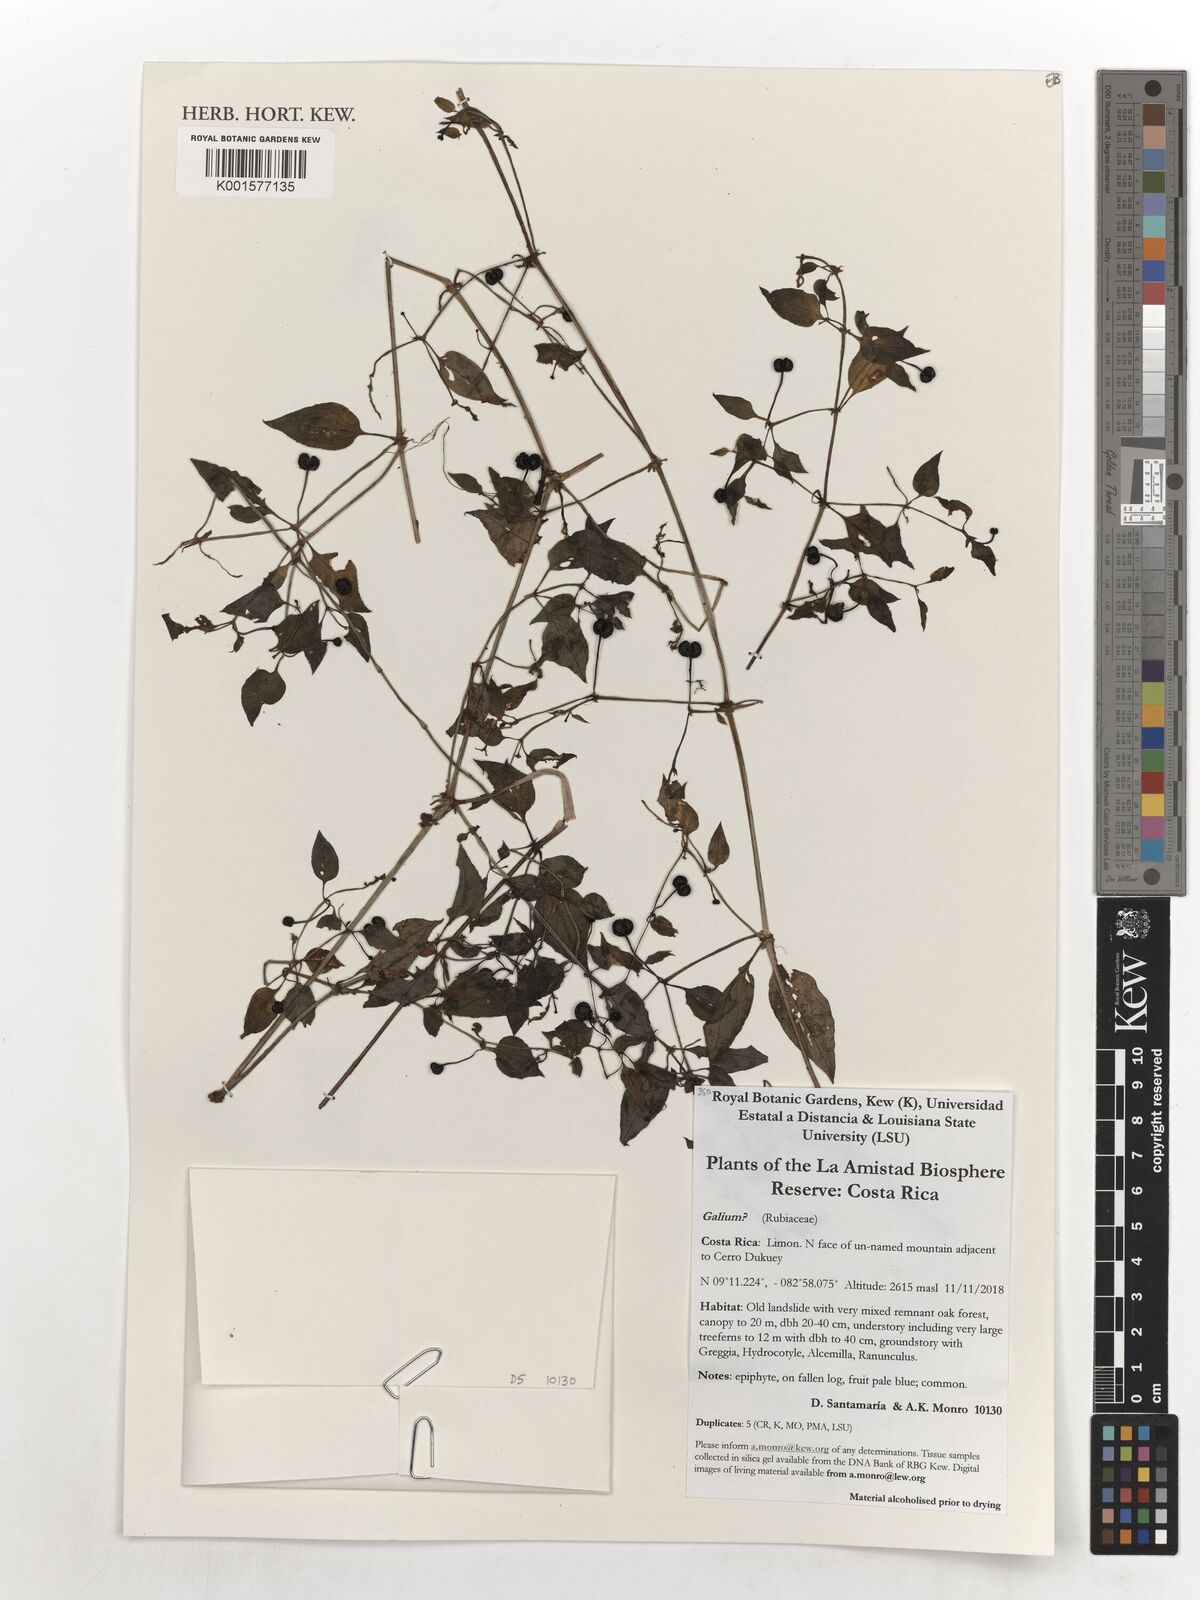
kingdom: Plantae
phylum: Tracheophyta
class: Magnoliopsida
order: Gentianales
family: Rubiaceae
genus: Galium
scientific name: Galium
